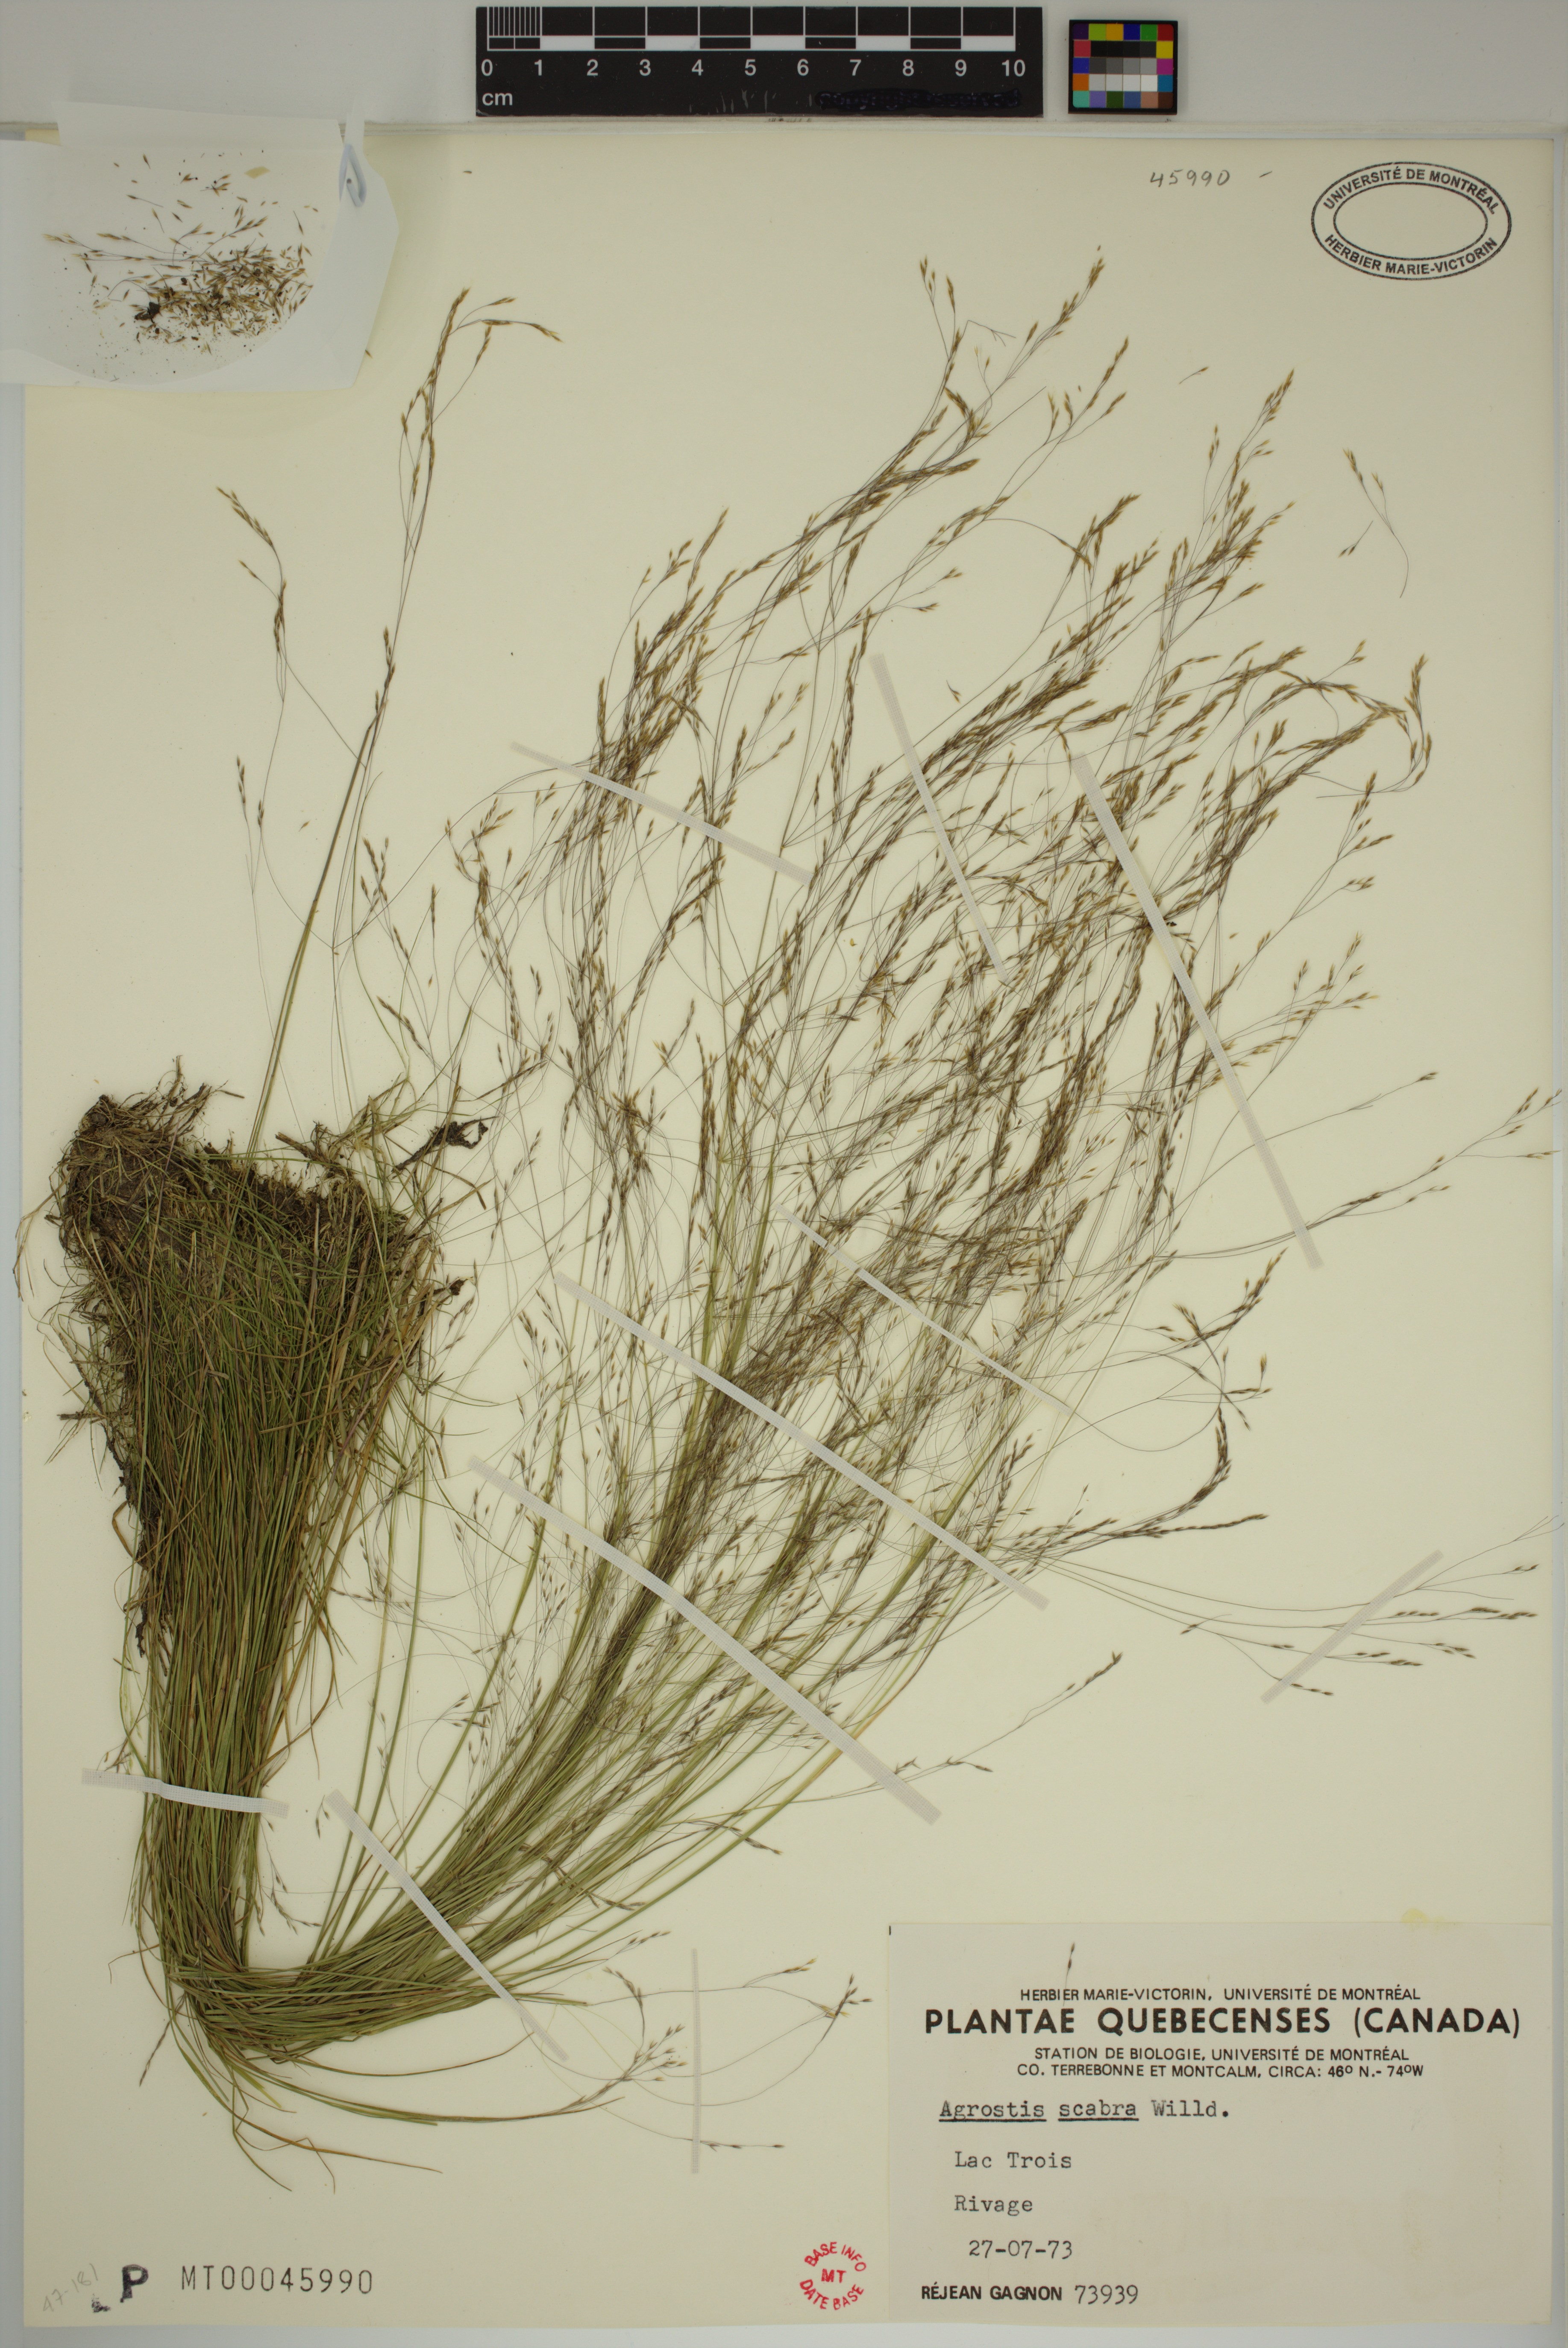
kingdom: Plantae
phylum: Tracheophyta
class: Liliopsida
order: Poales
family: Poaceae
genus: Agrostis
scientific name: Agrostis scabra
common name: Rough bent
